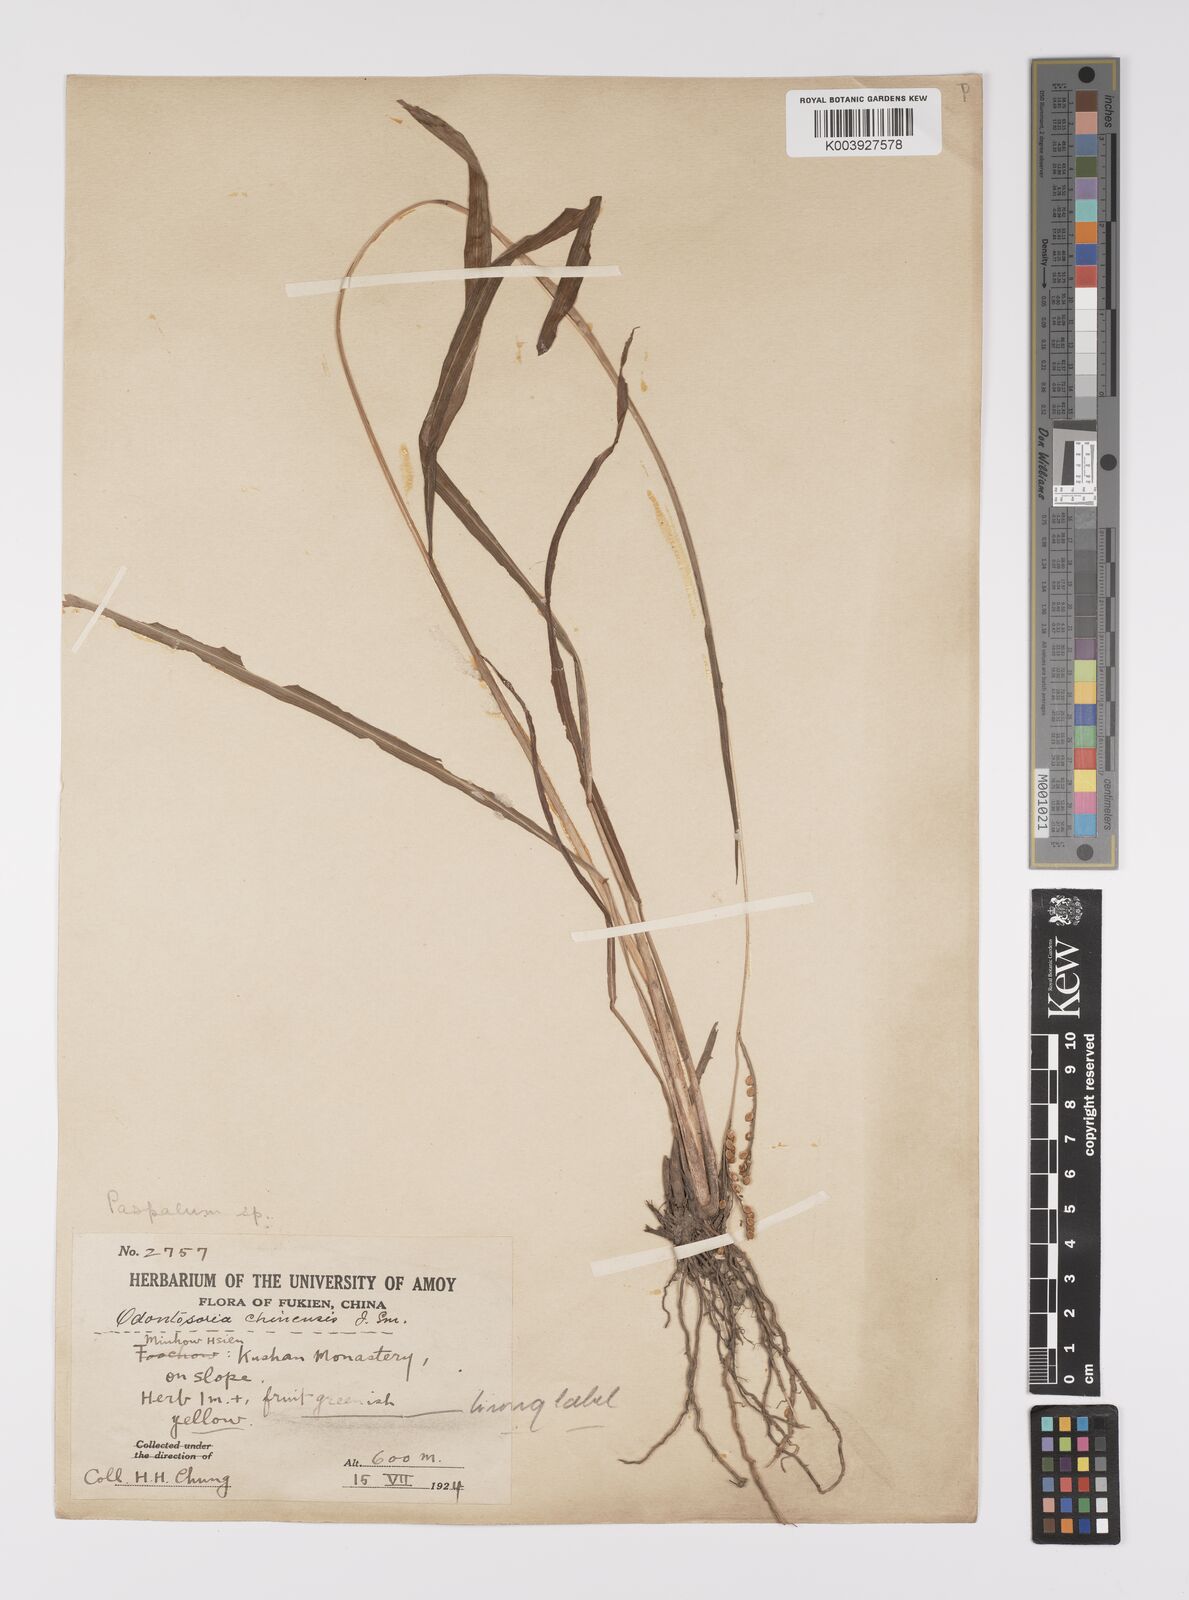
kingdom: Plantae
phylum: Tracheophyta
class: Liliopsida
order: Poales
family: Poaceae
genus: Paspalum
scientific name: Paspalum thunbergii
